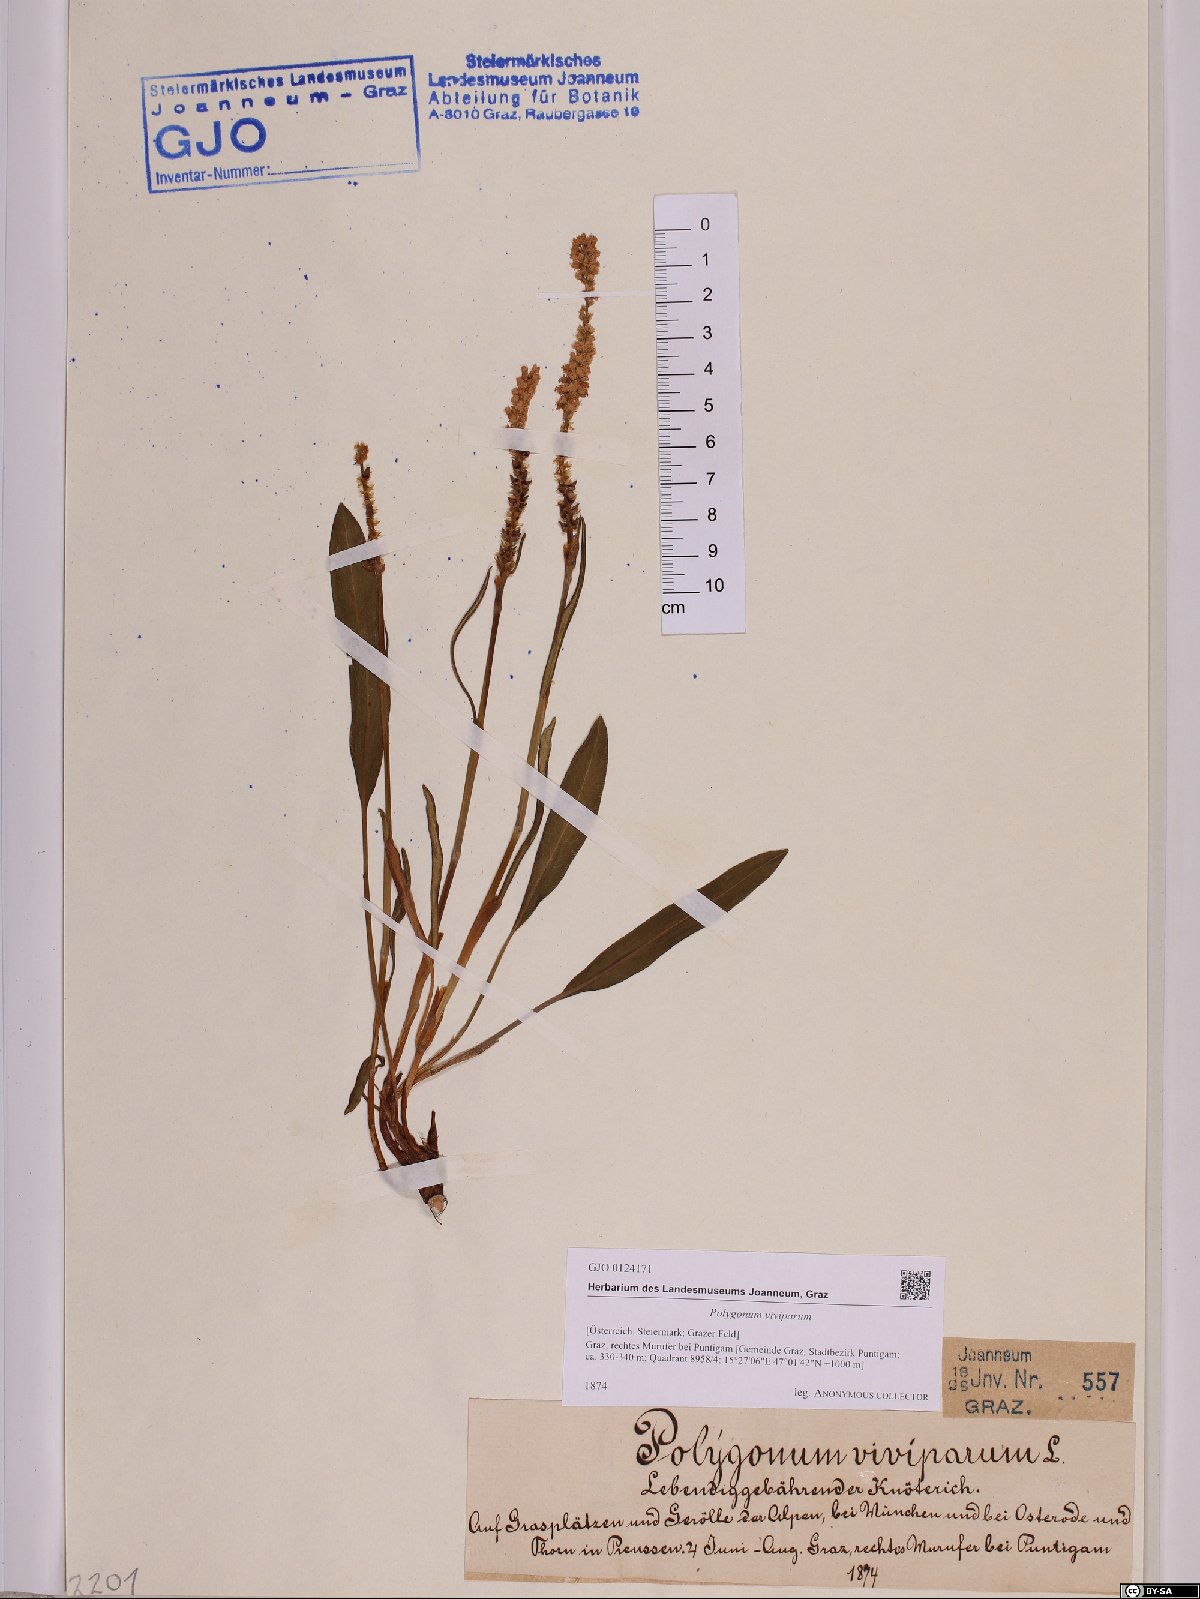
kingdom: Plantae
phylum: Tracheophyta
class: Magnoliopsida
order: Caryophyllales
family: Polygonaceae
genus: Bistorta
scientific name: Bistorta vivipara
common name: Alpine bistort
